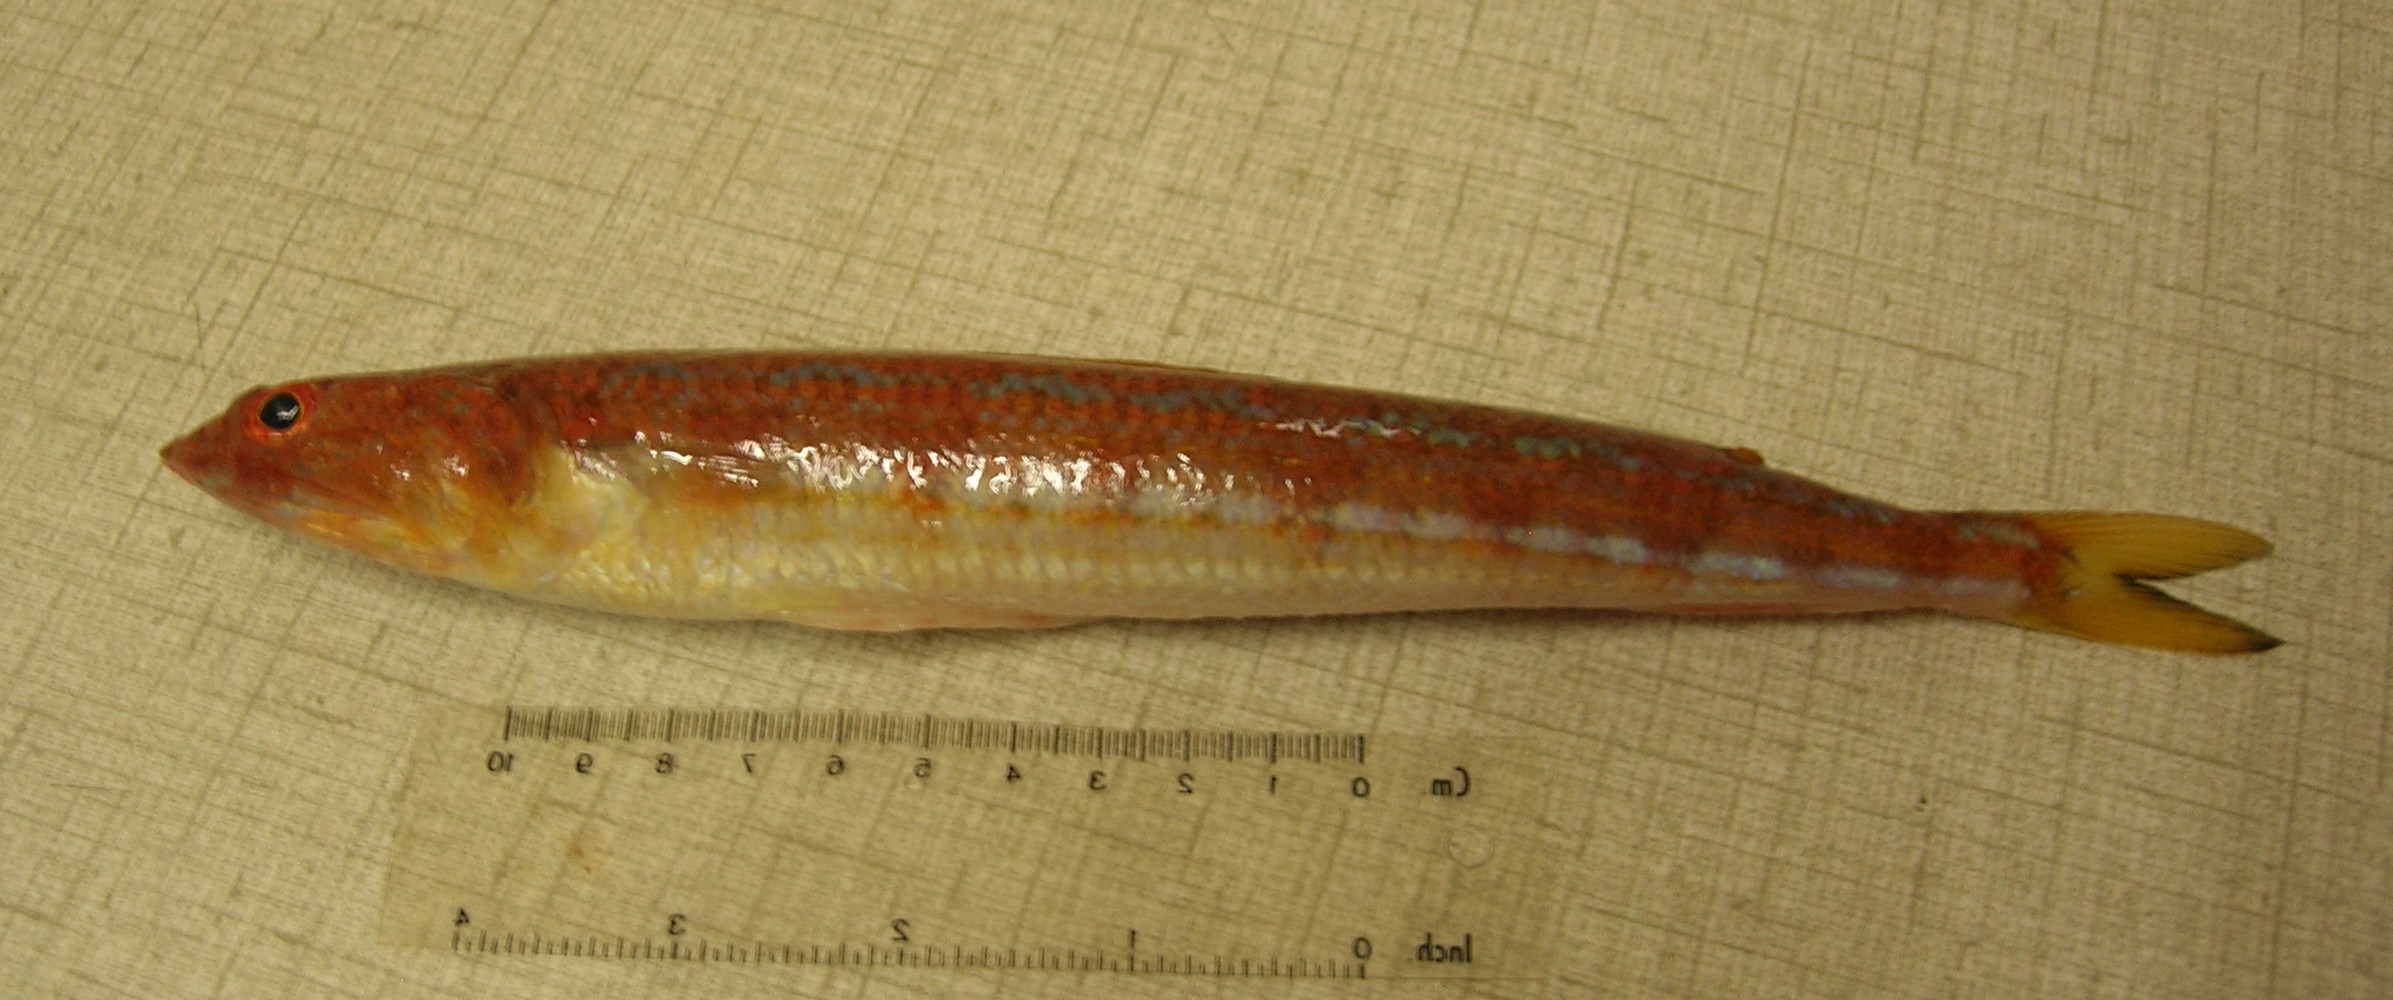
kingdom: Animalia
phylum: Chordata
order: Aulopiformes
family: Synodontidae
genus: Synodus
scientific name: Synodus indicus
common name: Indian lizardfish
